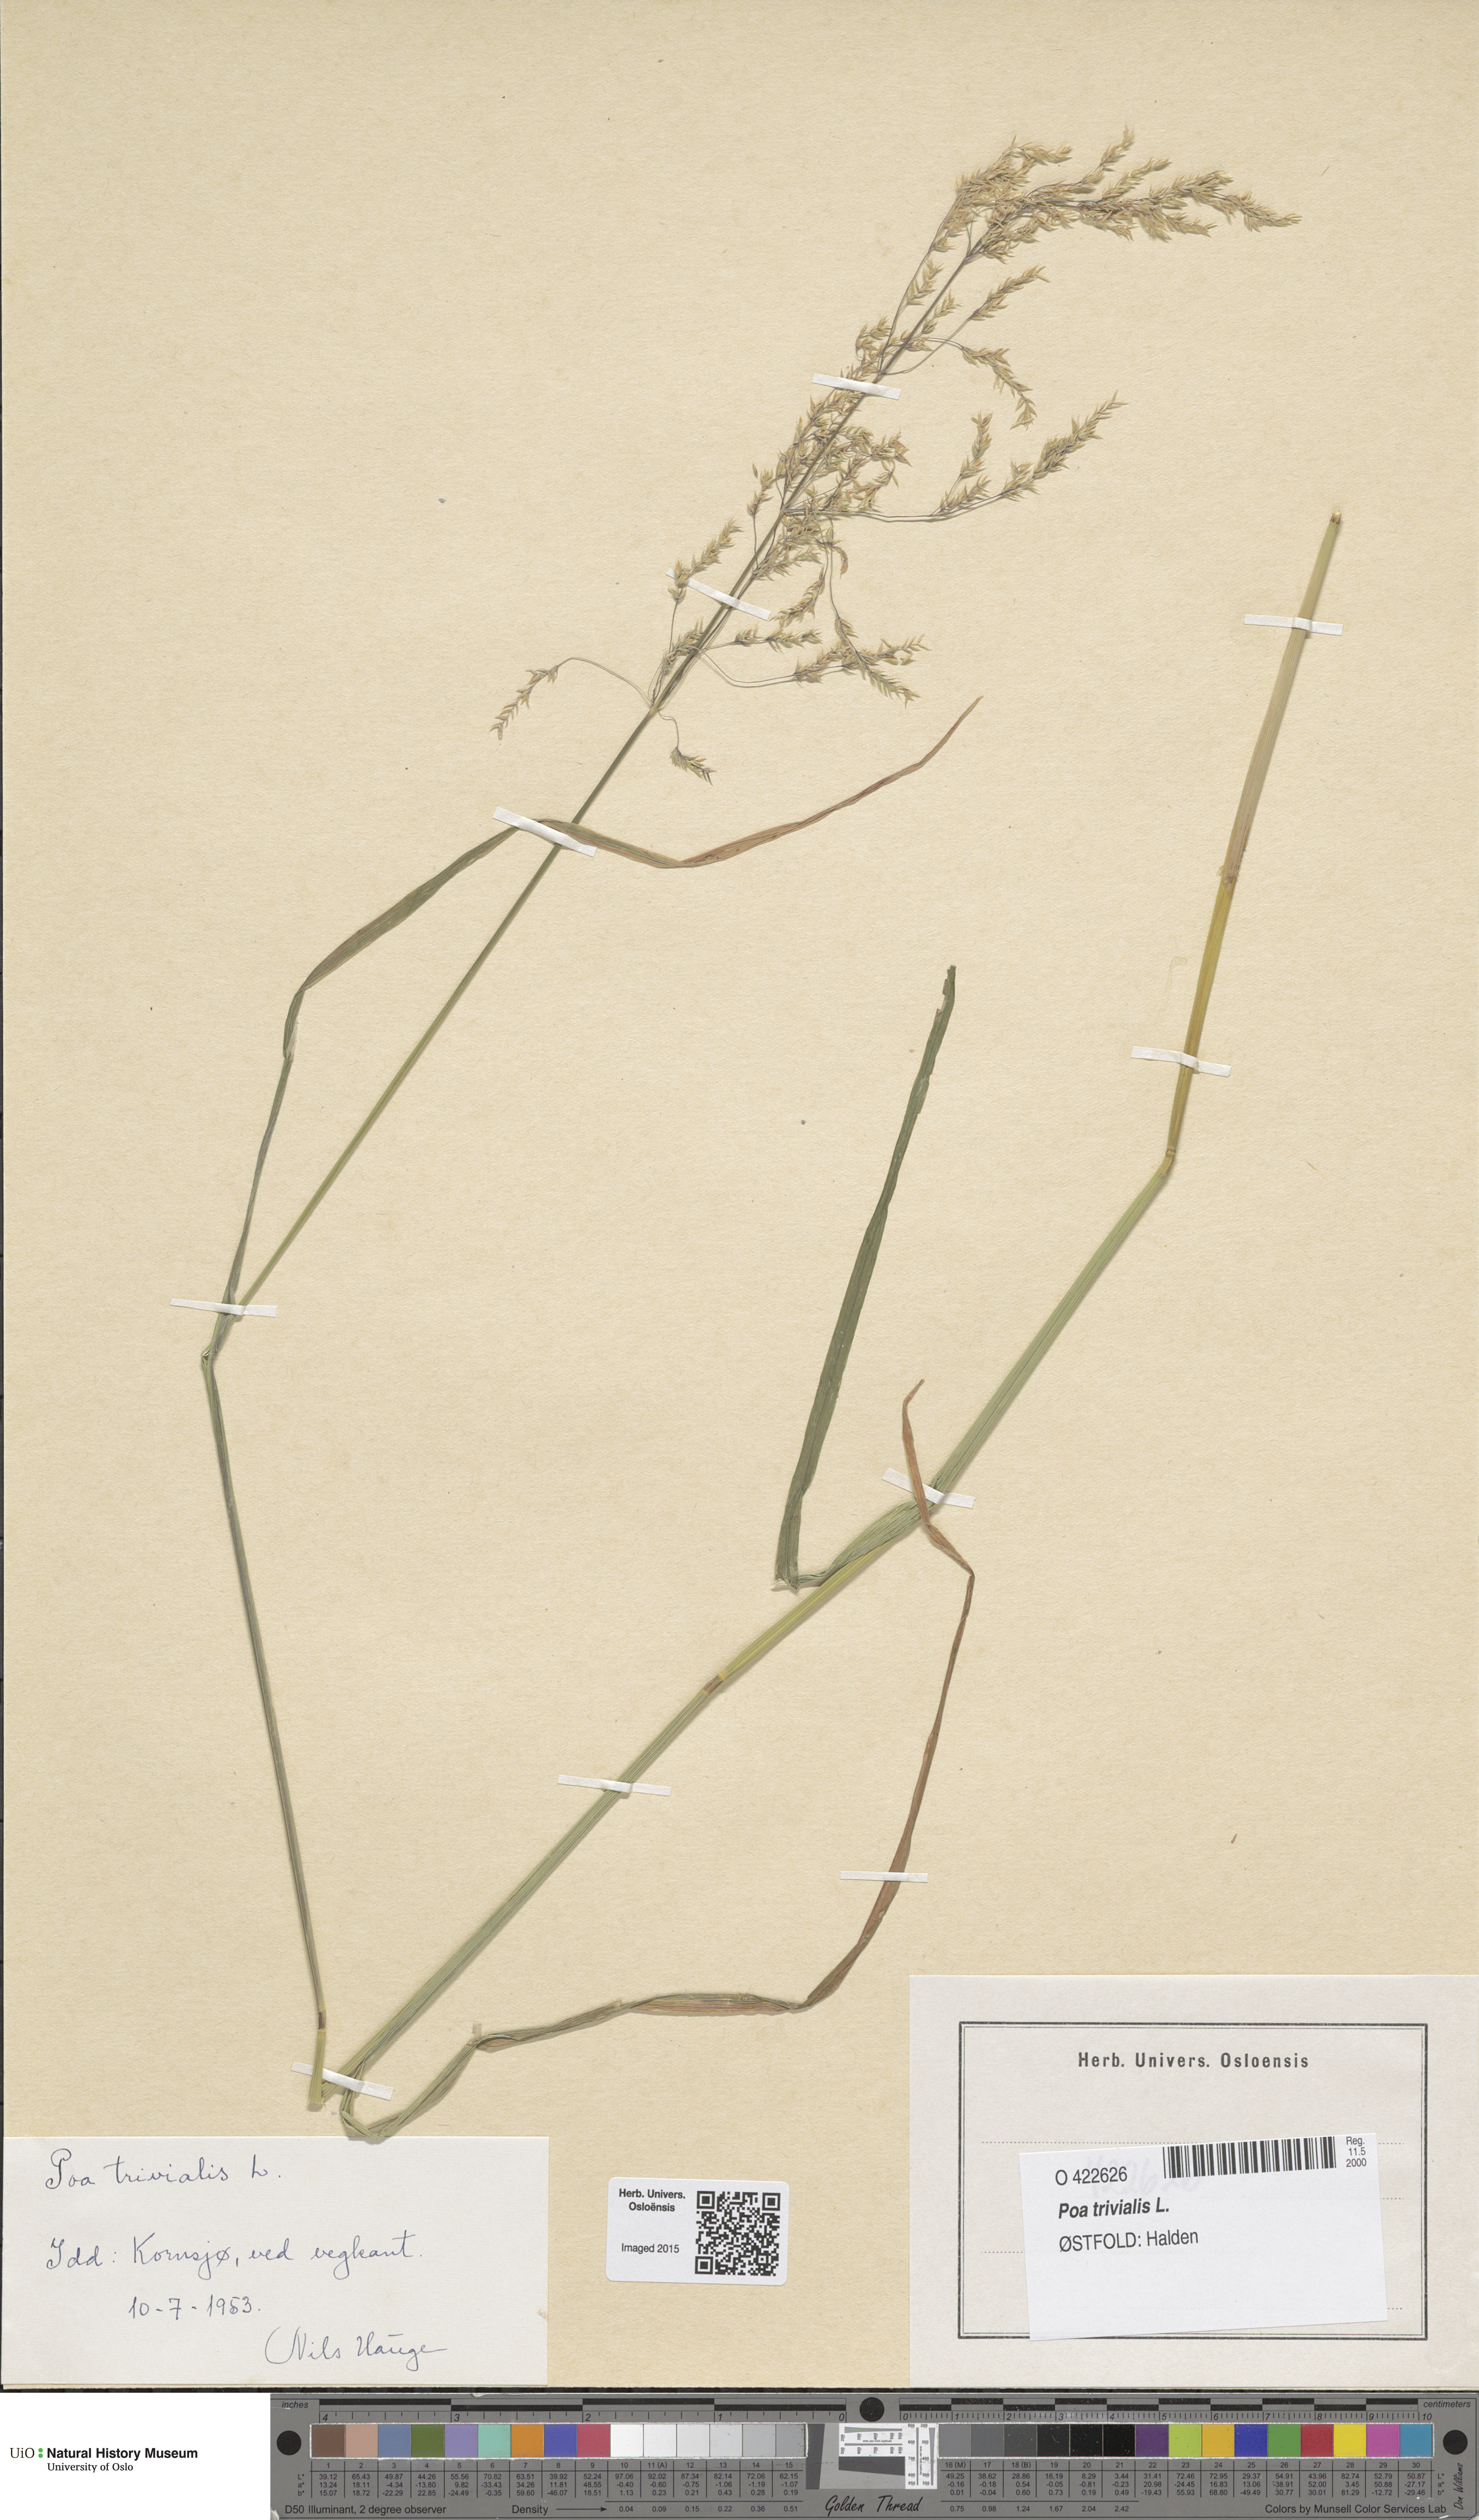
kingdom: Plantae
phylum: Tracheophyta
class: Liliopsida
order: Poales
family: Poaceae
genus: Poa
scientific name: Poa trivialis
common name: Rough bluegrass
